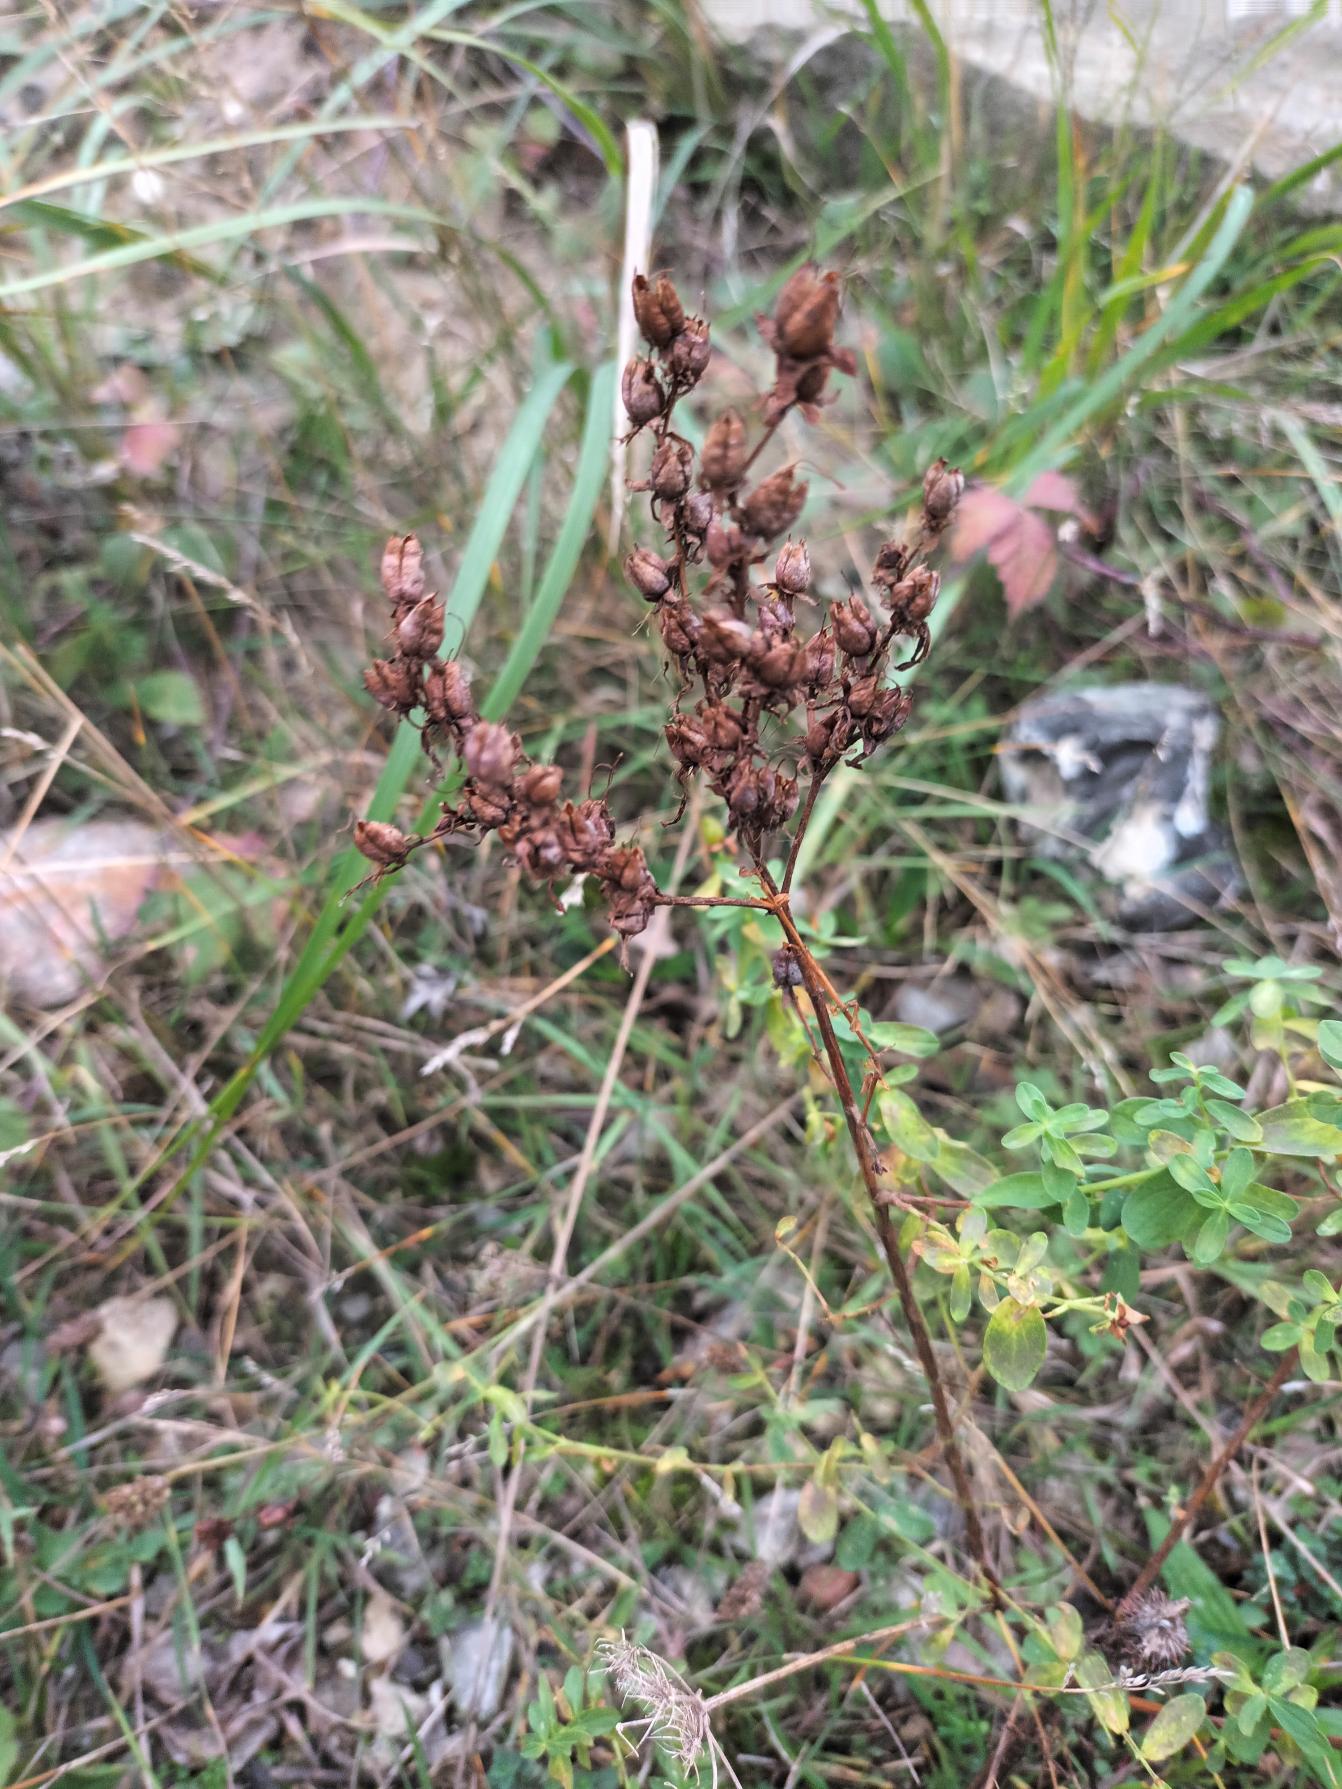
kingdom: Plantae
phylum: Tracheophyta
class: Magnoliopsida
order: Malpighiales
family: Hypericaceae
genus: Hypericum
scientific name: Hypericum perforatum
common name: Prikbladet perikon
